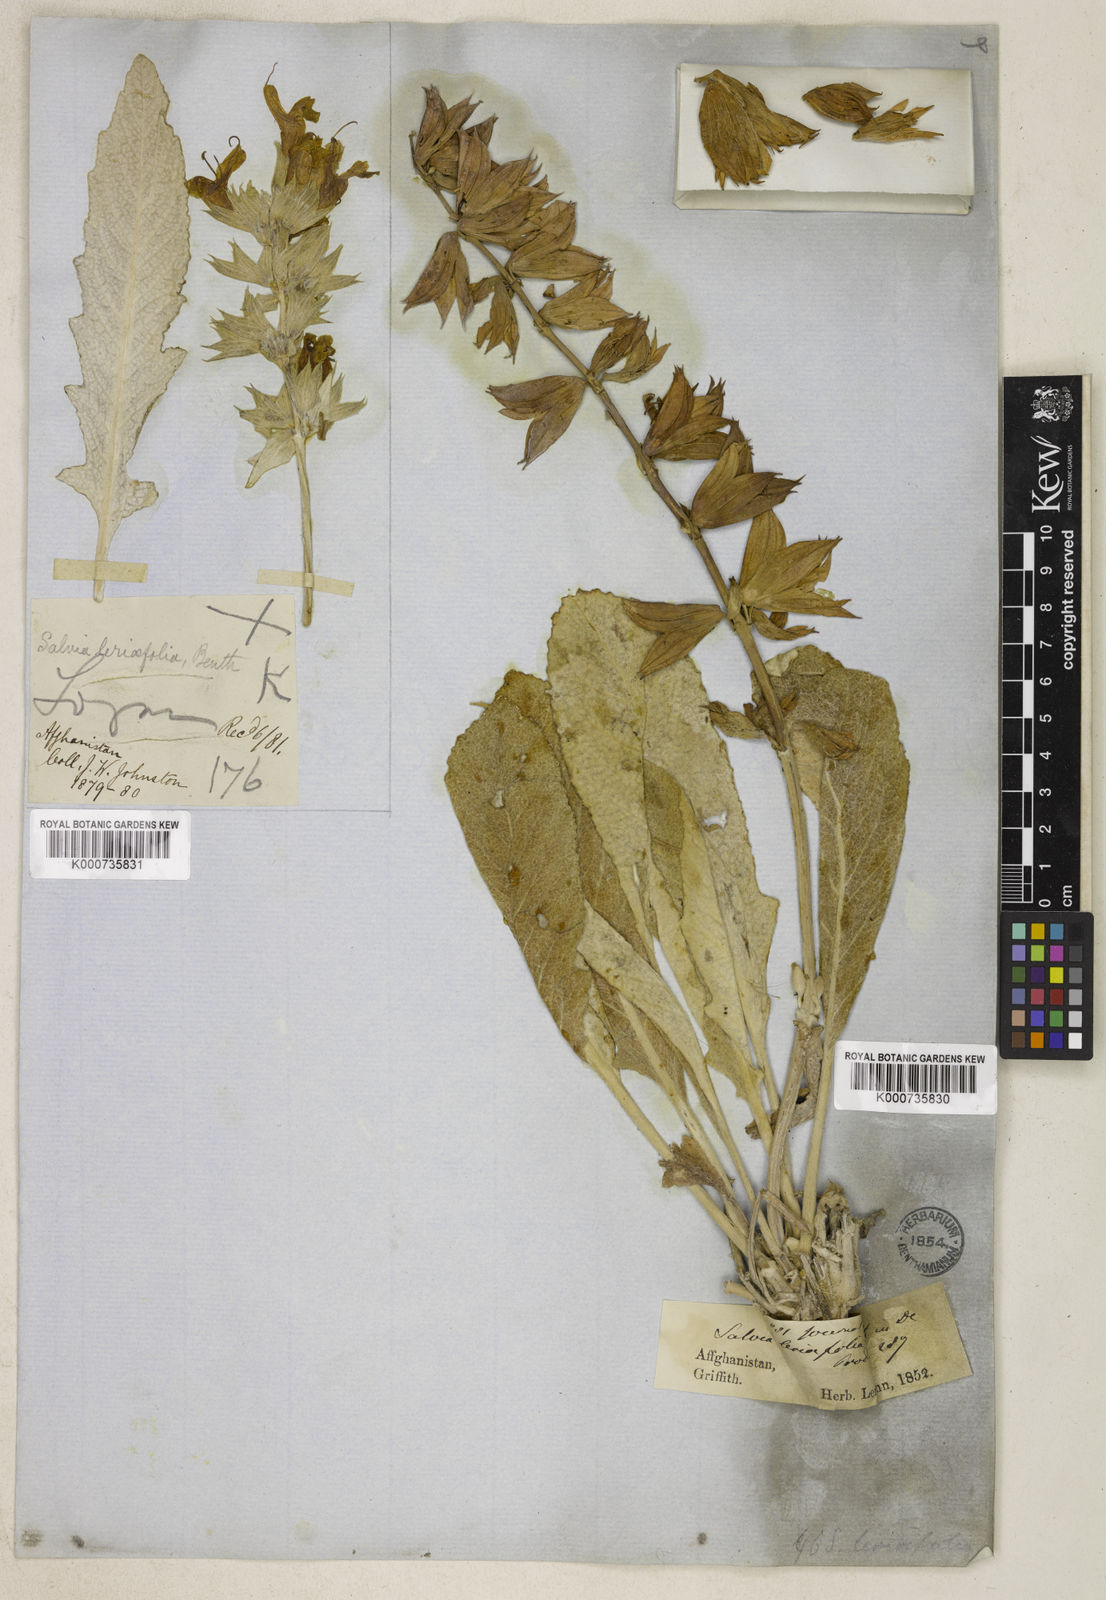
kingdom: Plantae
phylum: Tracheophyta
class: Magnoliopsida
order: Lamiales
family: Lamiaceae
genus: Salvia
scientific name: Salvia leriifolia
